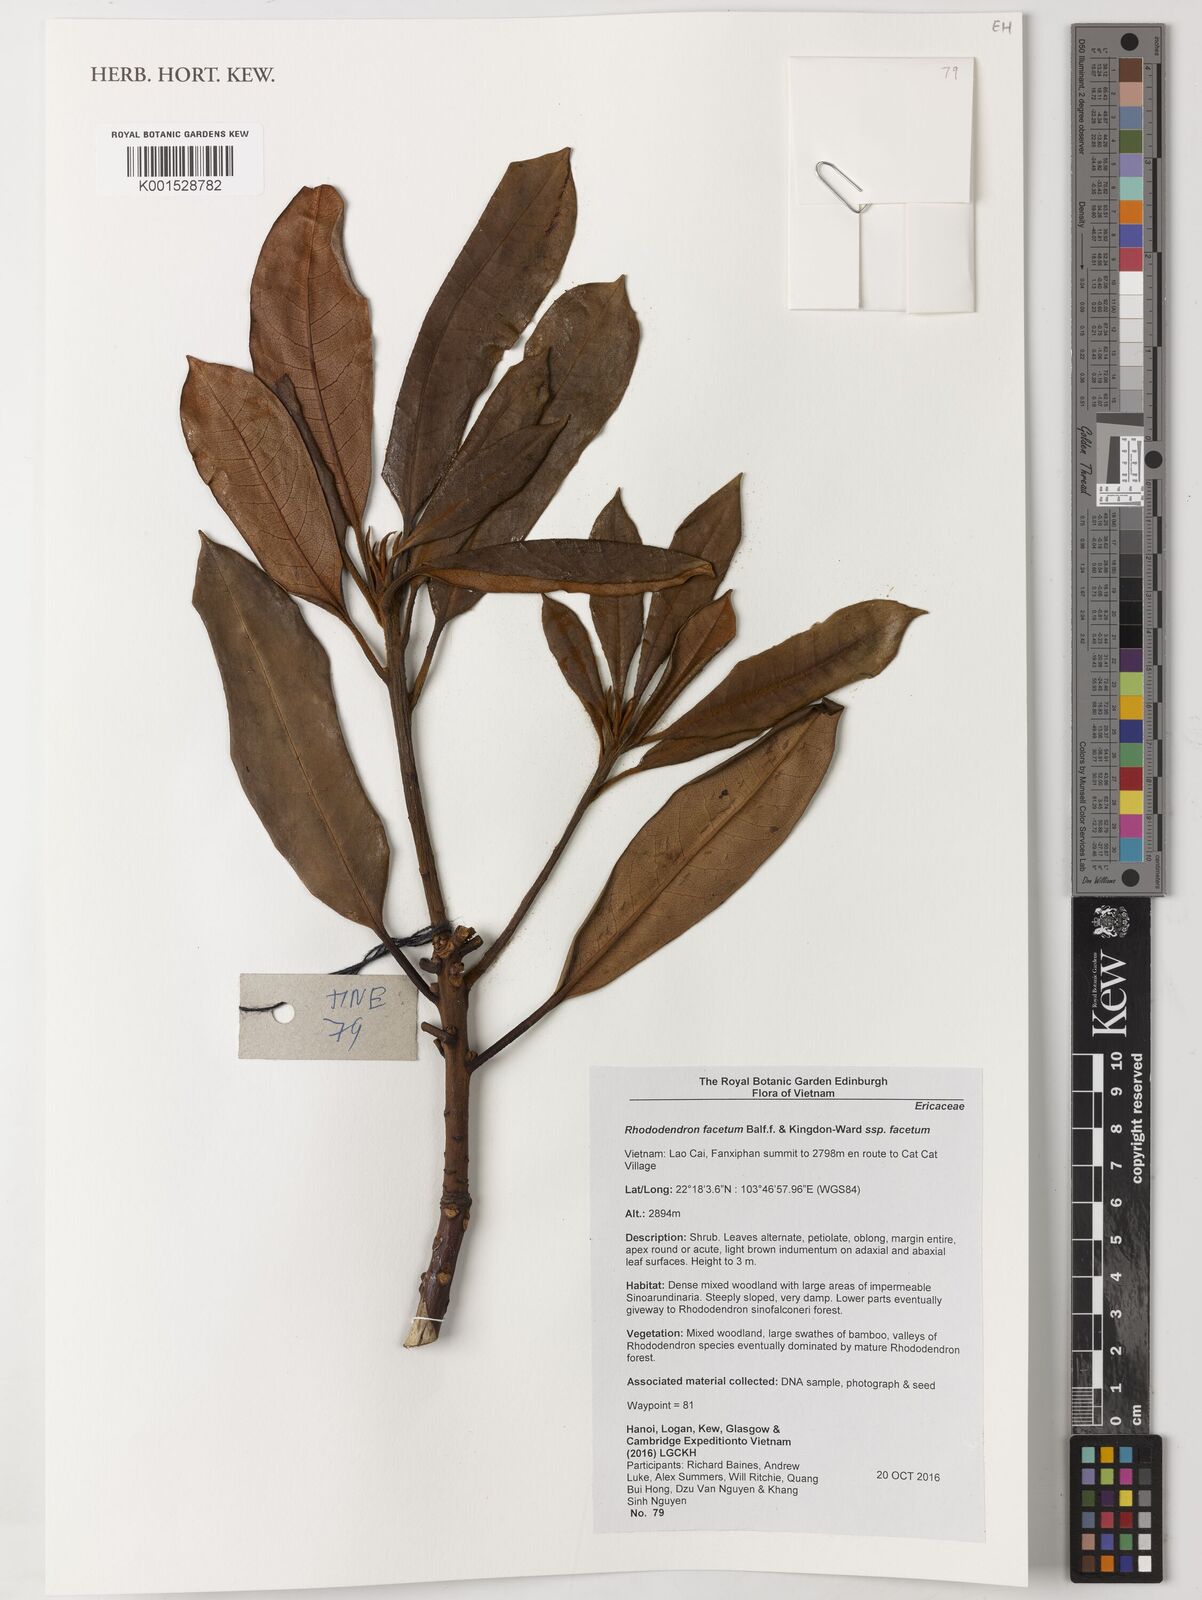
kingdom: Plantae
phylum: Tracheophyta
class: Magnoliopsida
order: Ericales
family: Ericaceae
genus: Rhododendron
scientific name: Rhododendron facetum
